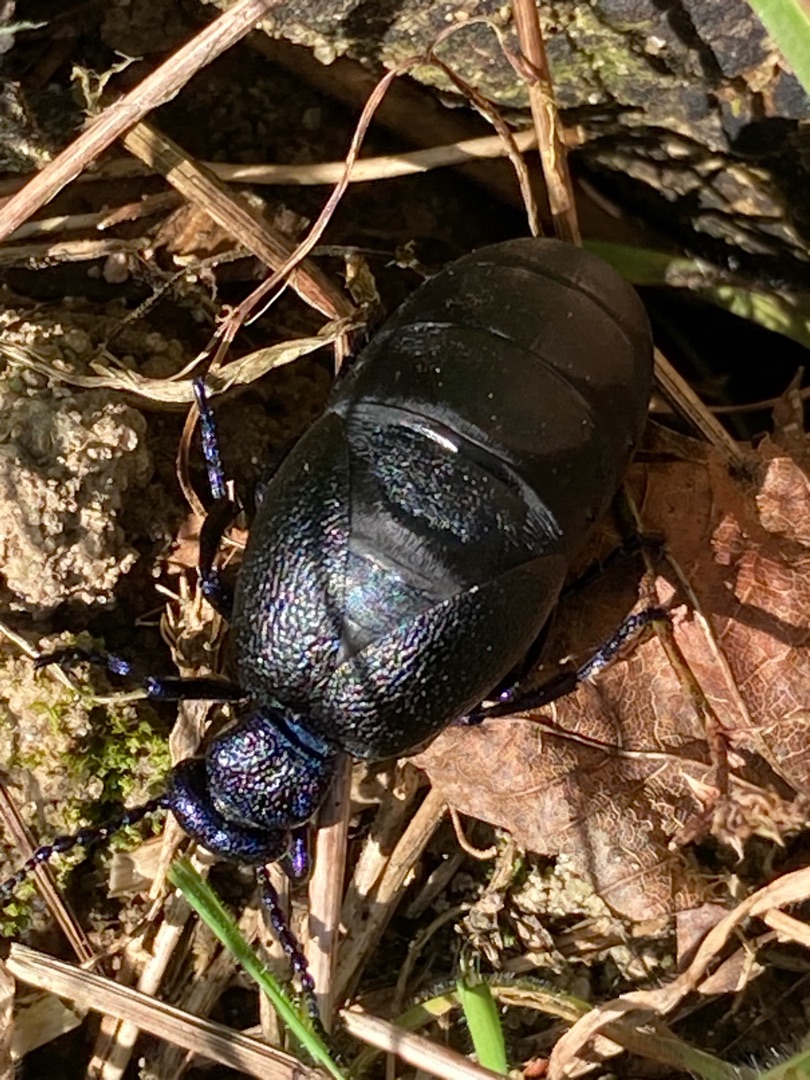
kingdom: Animalia
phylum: Arthropoda
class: Insecta
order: Coleoptera
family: Meloidae
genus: Meloe
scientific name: Meloe proscarabaeus
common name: Sort oliebille
